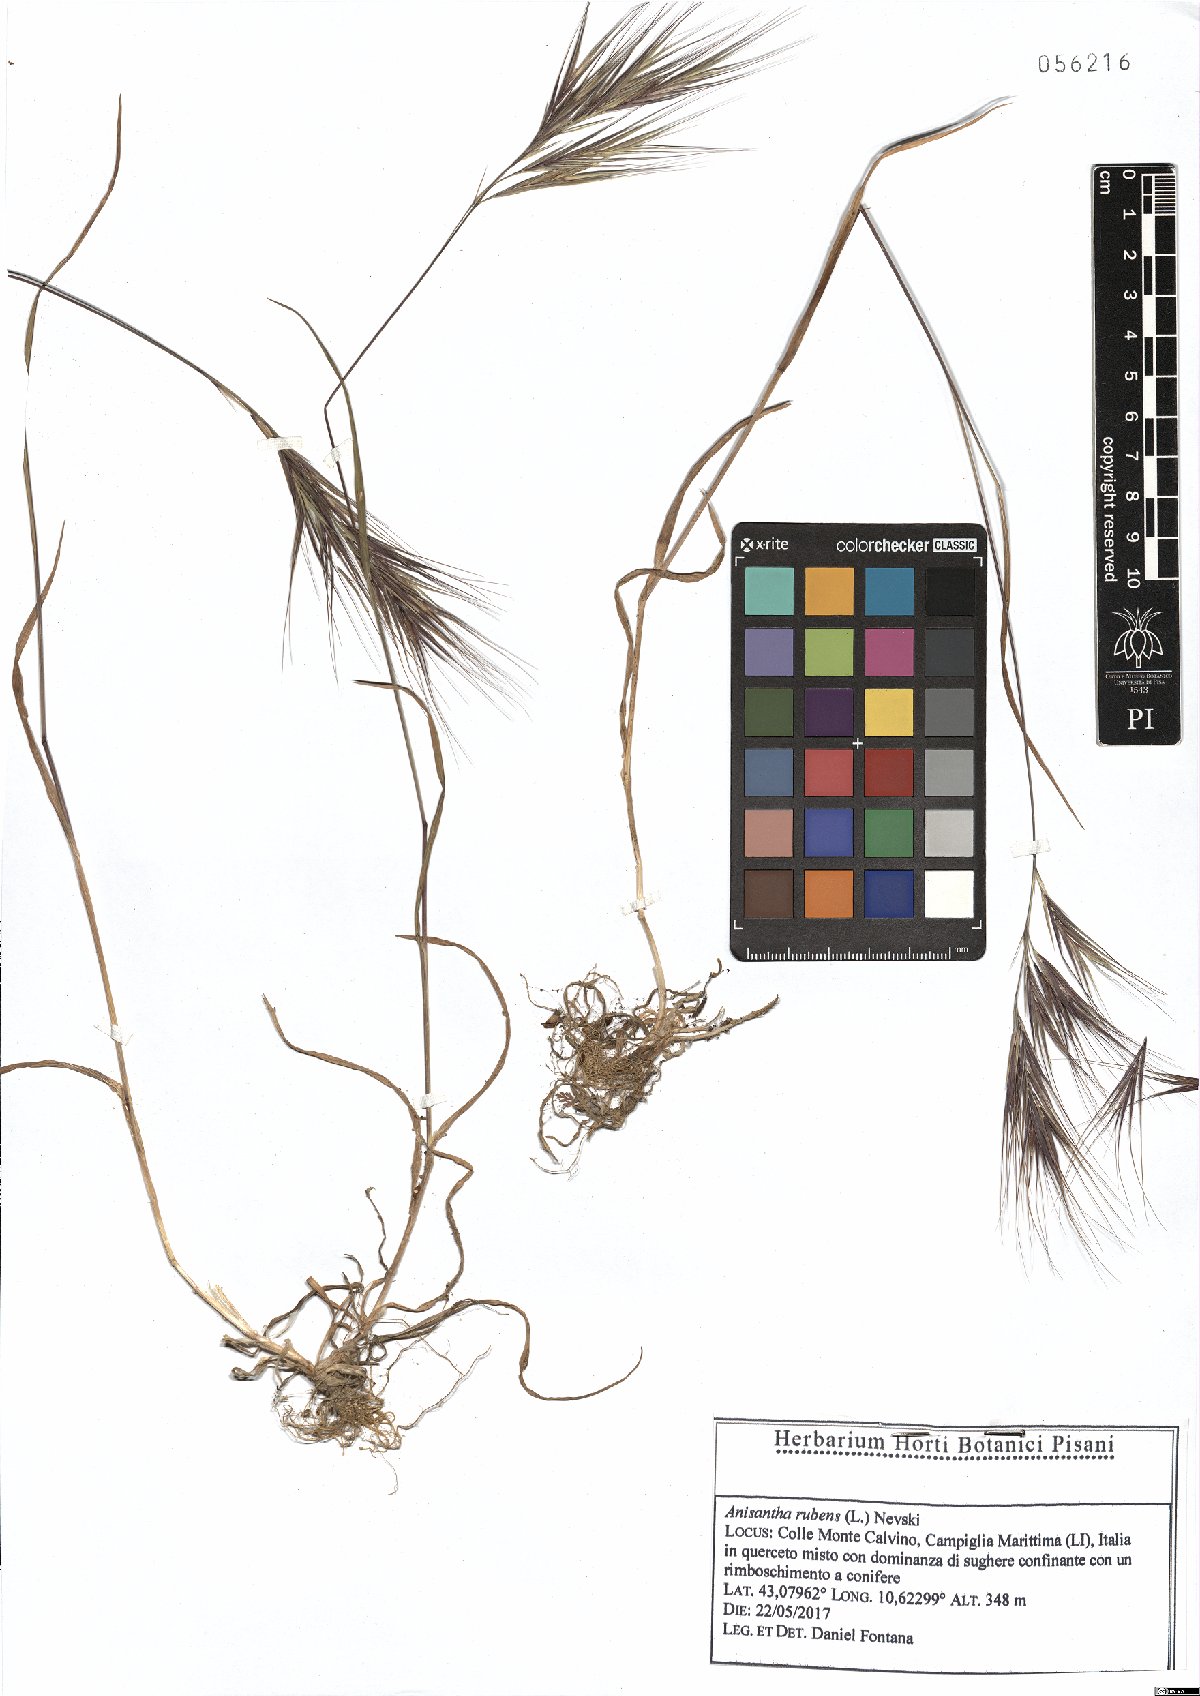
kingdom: Plantae
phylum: Tracheophyta
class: Liliopsida
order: Poales
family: Poaceae
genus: Bromus
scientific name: Bromus rubens
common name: Red brome
